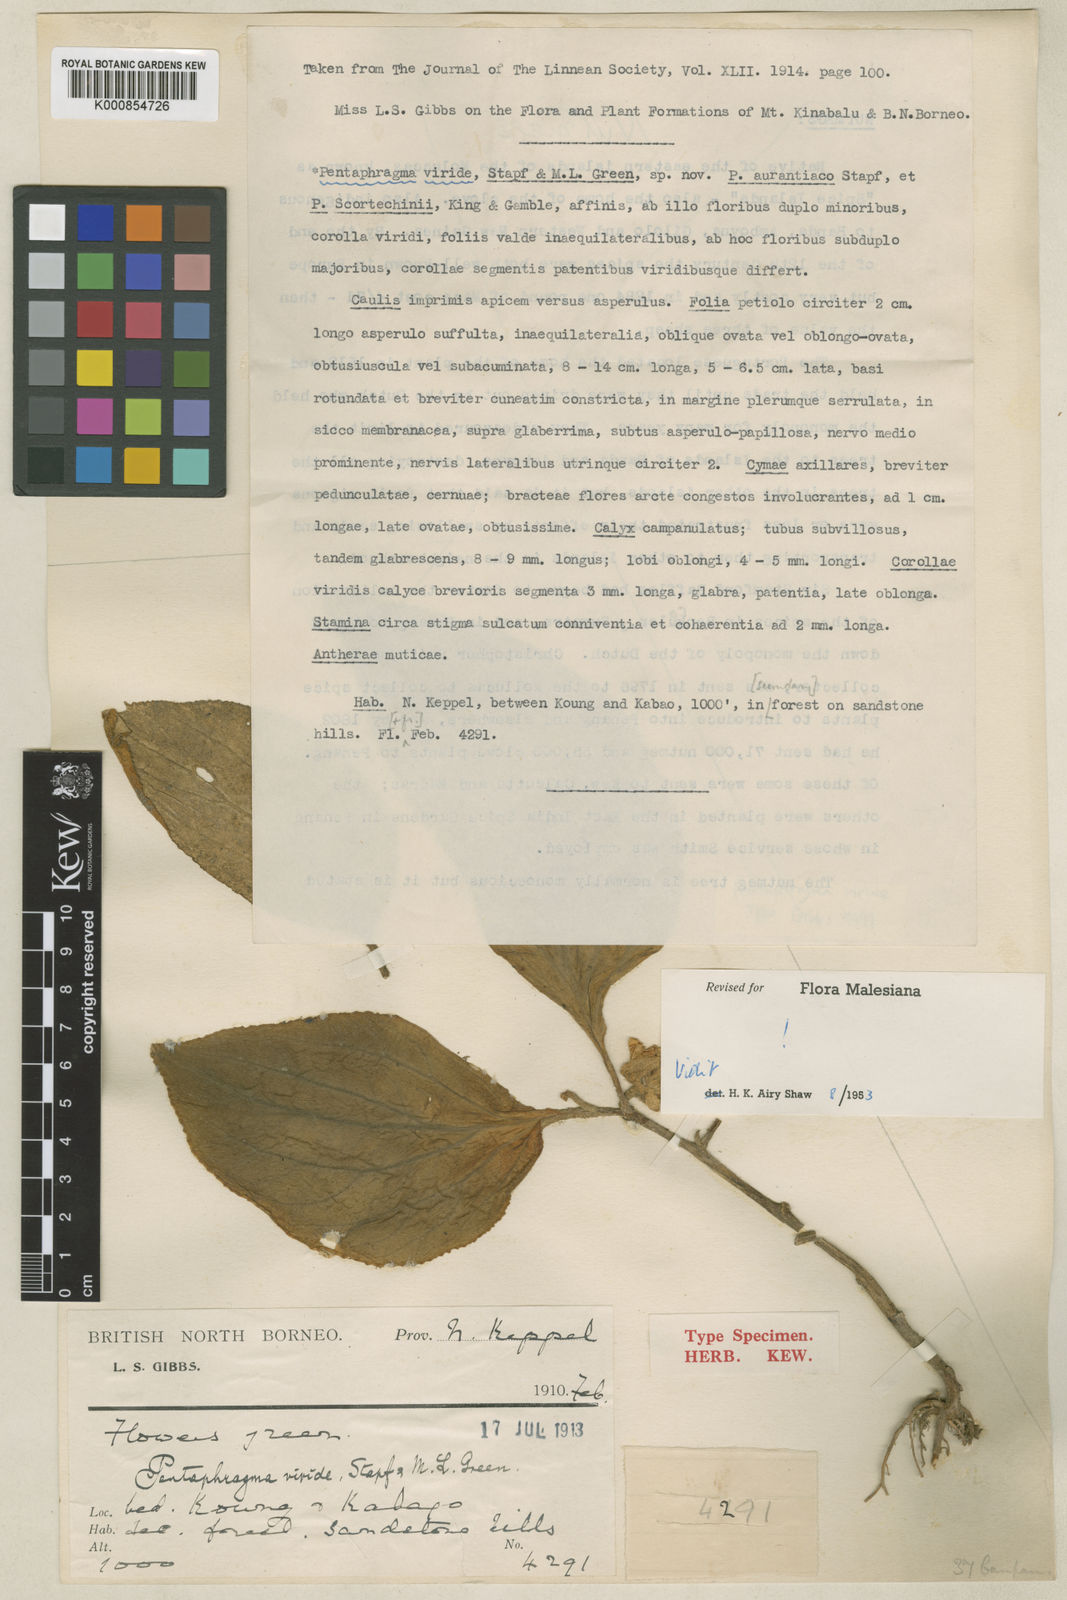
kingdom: Plantae
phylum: Tracheophyta
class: Magnoliopsida
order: Asterales
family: Pentaphragmataceae
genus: Pentaphragma
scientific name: Pentaphragma viride
